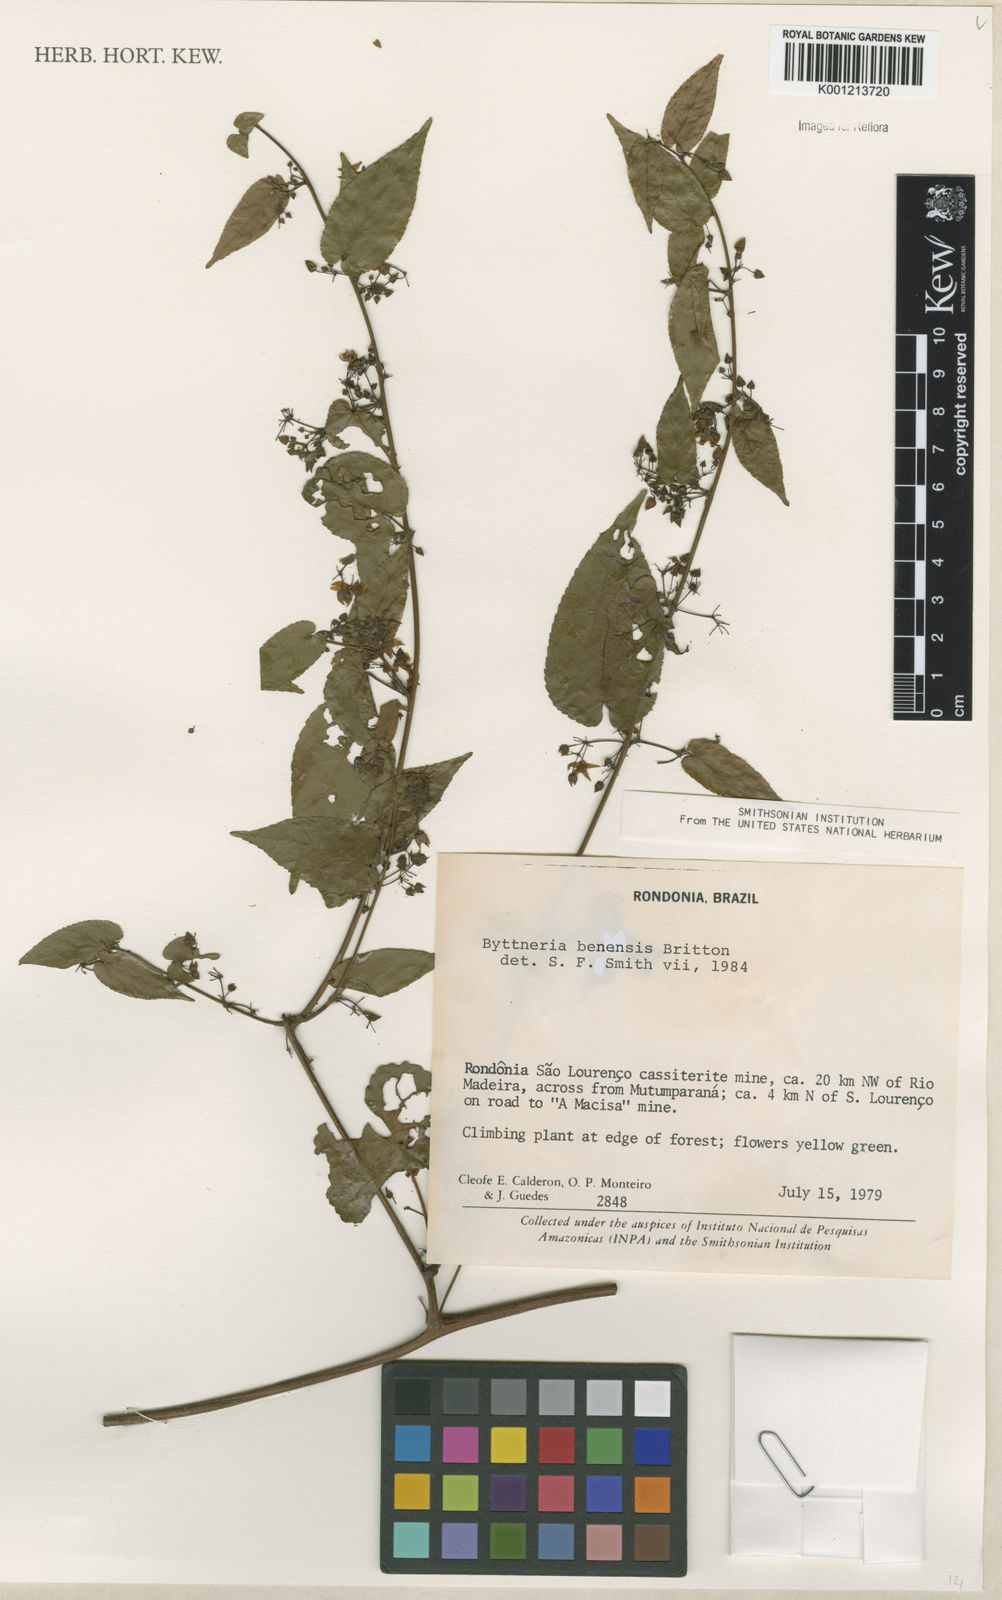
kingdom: Plantae
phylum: Tracheophyta
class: Magnoliopsida
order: Malvales
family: Malvaceae
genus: Byttneria
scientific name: Byttneria benensis
